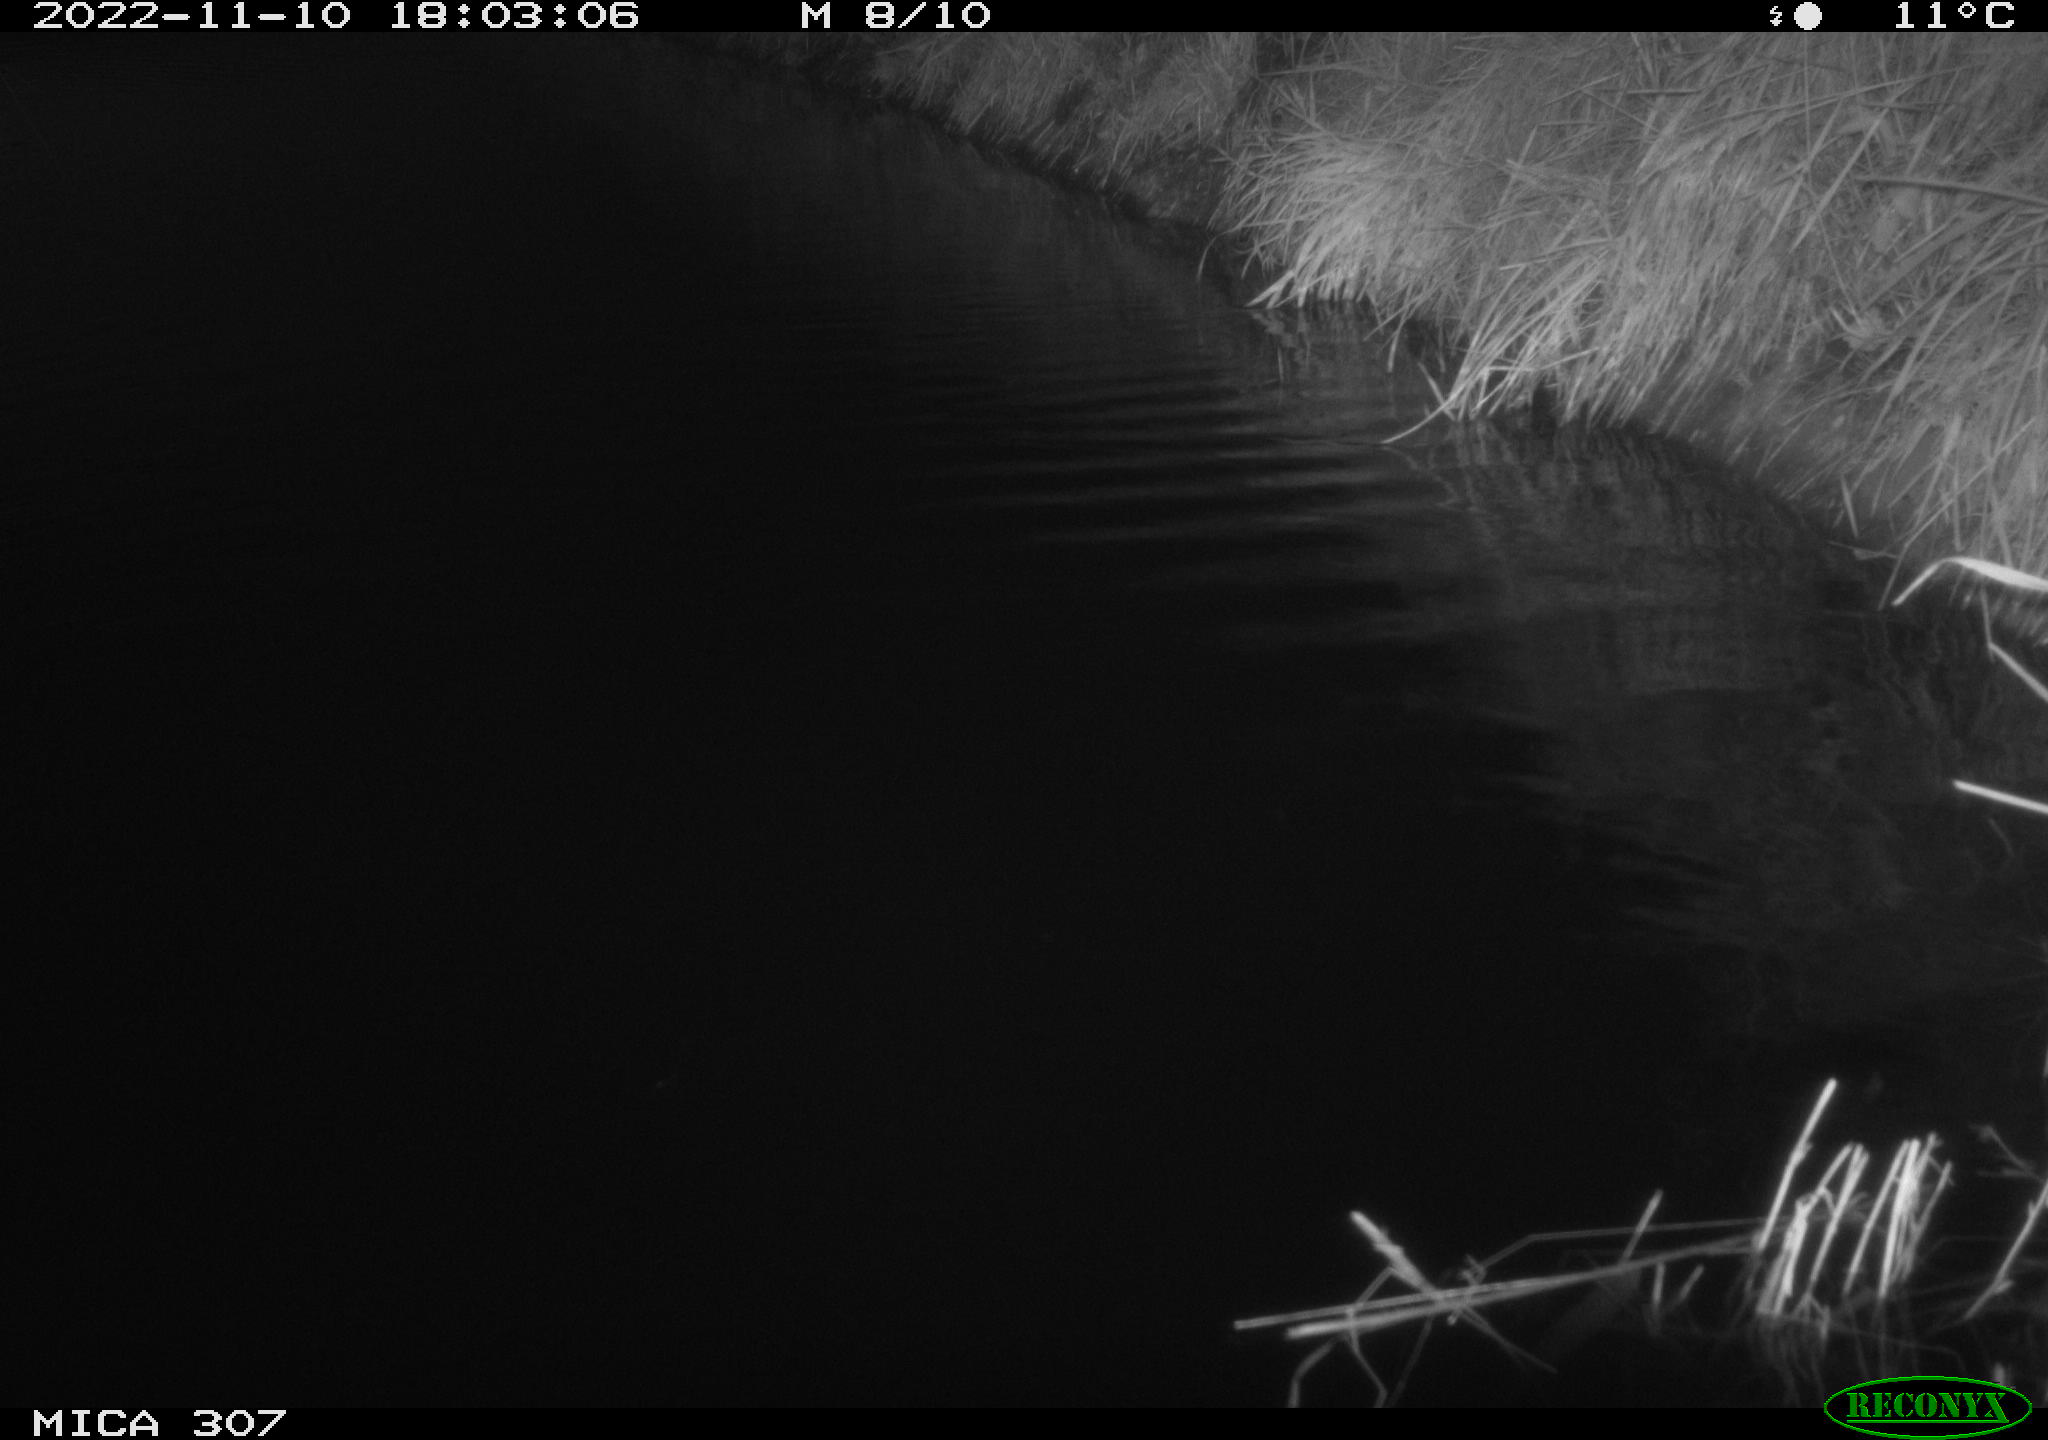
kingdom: Animalia
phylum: Chordata
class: Mammalia
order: Rodentia
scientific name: Rodentia
